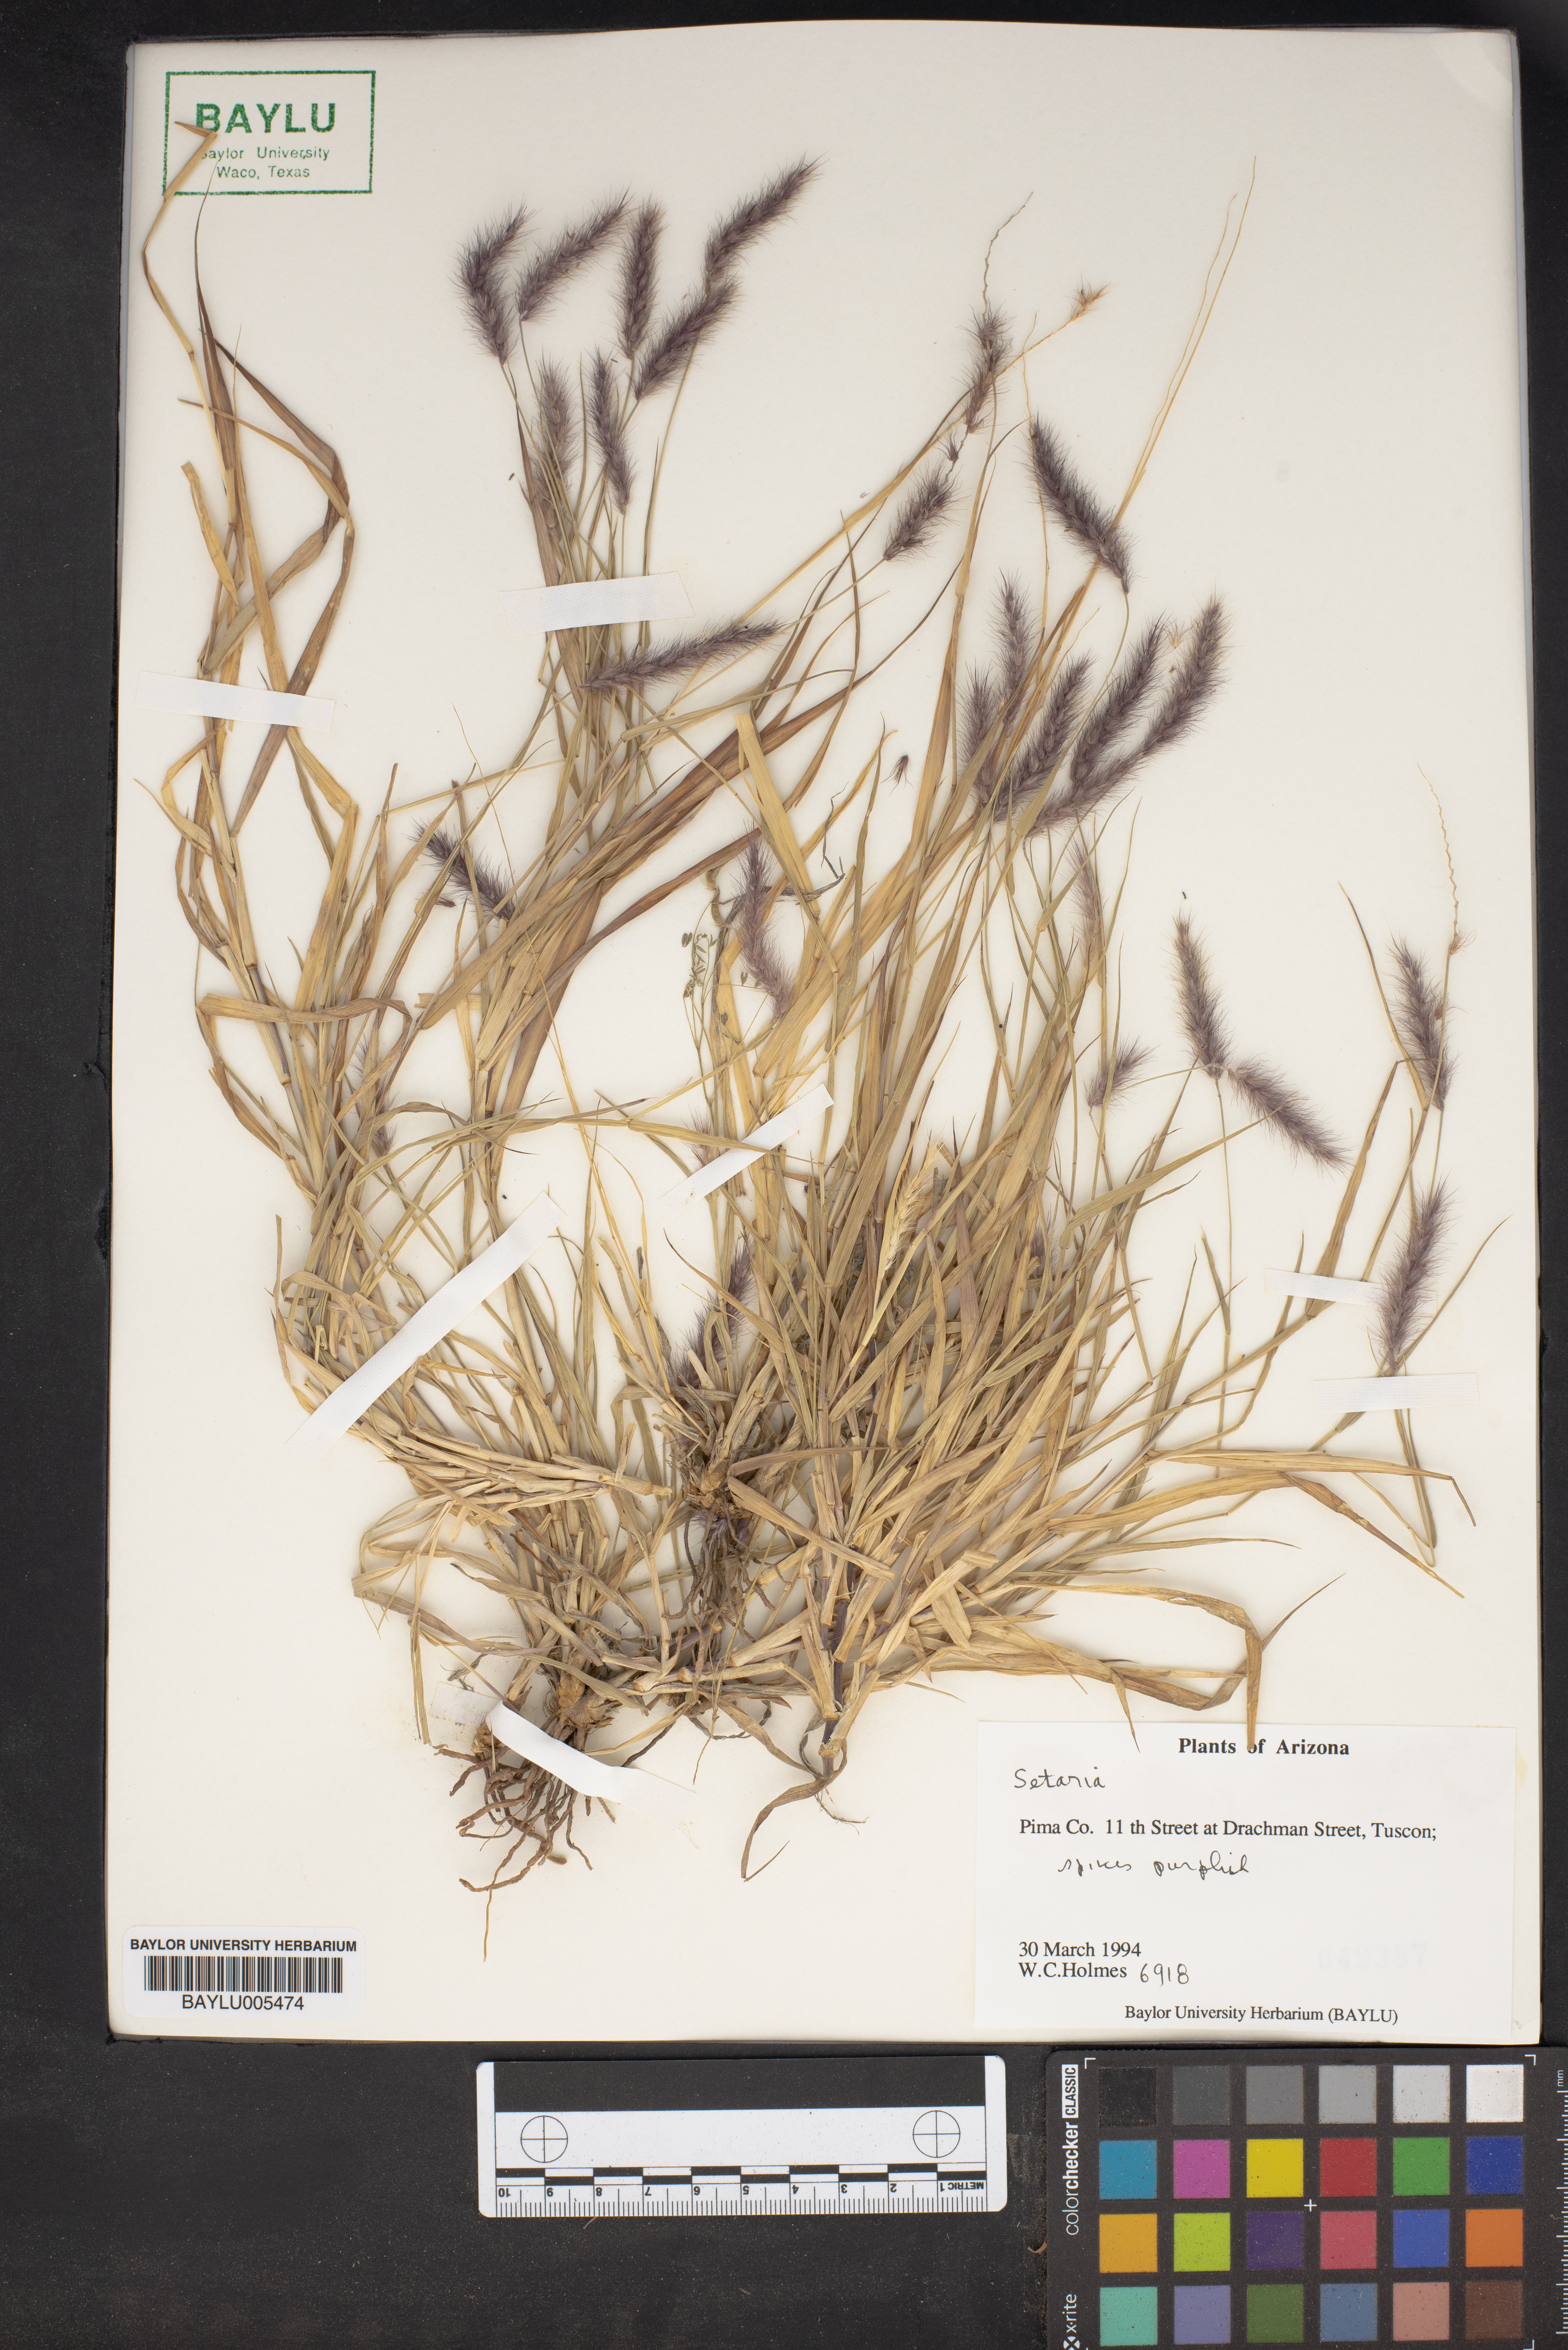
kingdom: Plantae
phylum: Tracheophyta
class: Liliopsida
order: Poales
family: Poaceae
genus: Setaria
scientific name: Setaria
